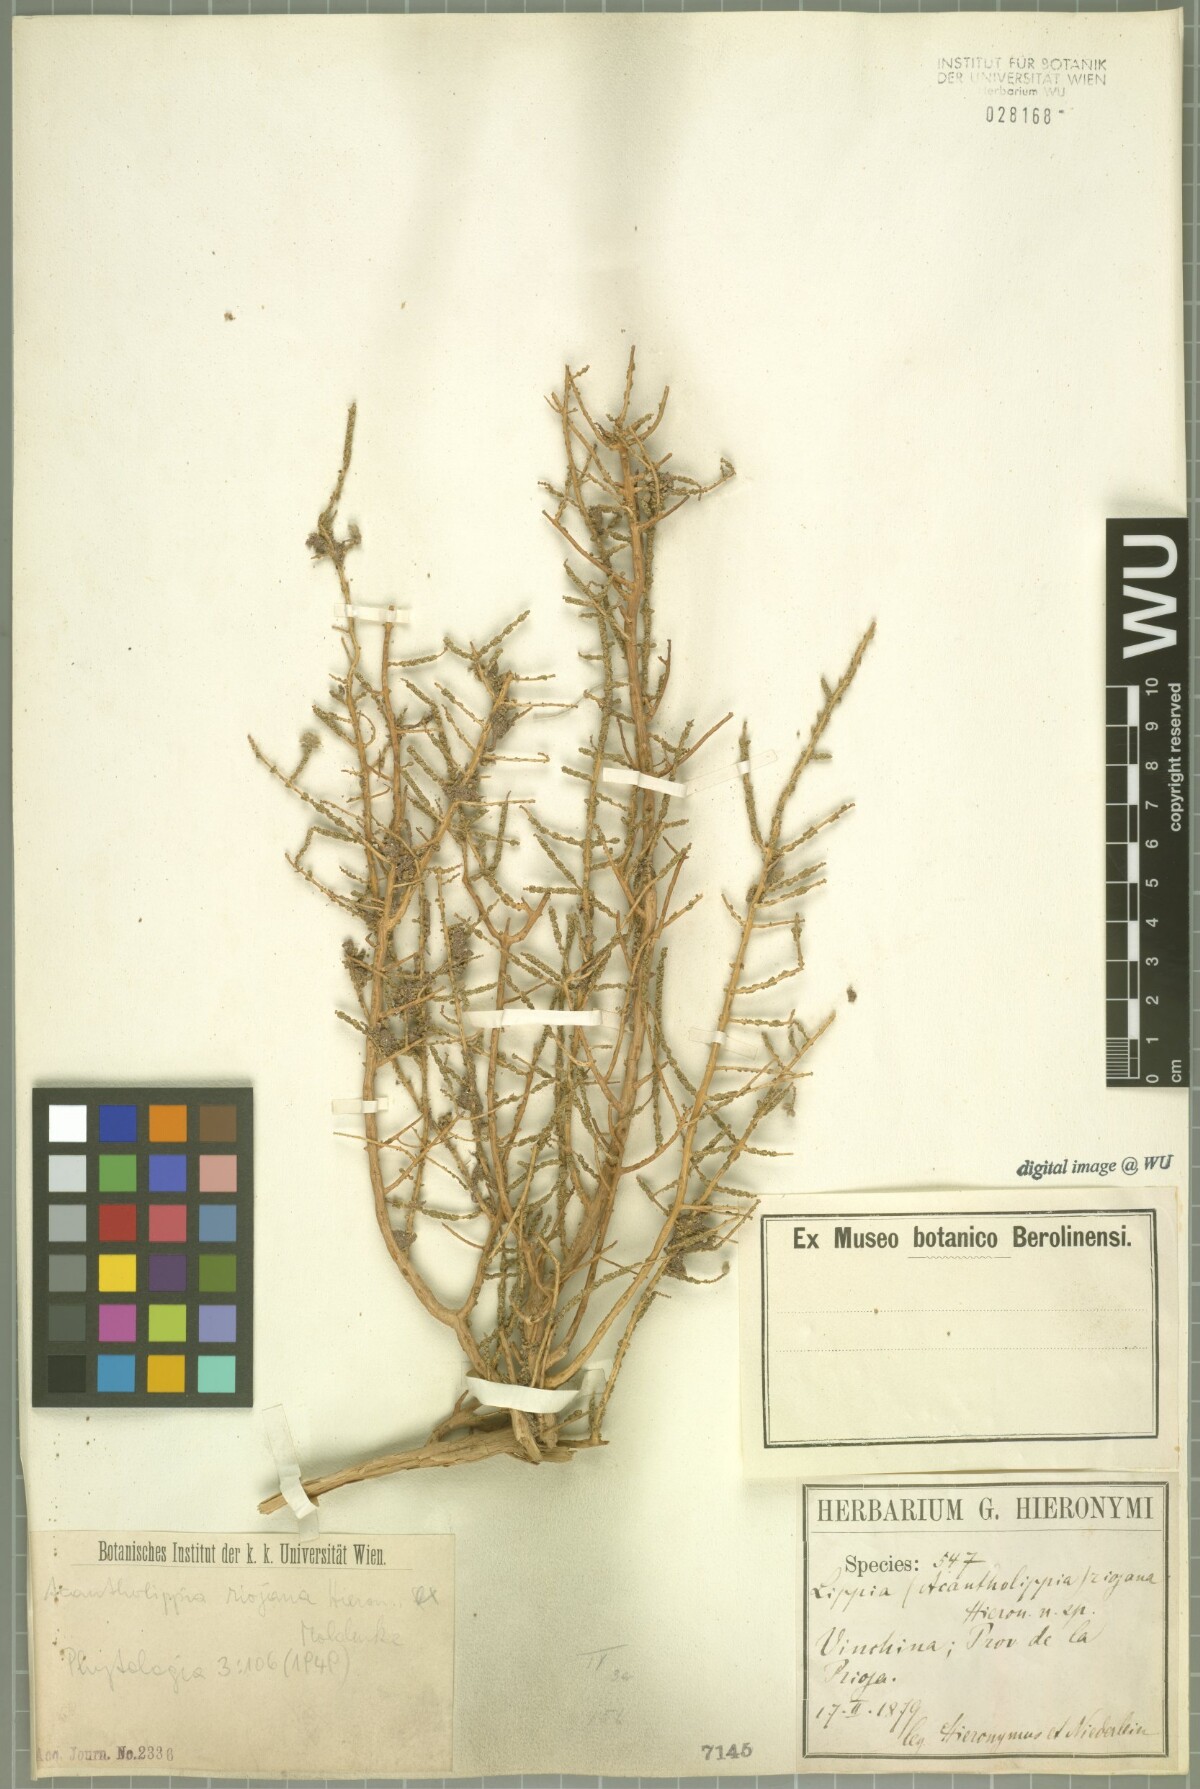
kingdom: Plantae
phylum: Tracheophyta
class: Magnoliopsida
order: Lamiales
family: Verbenaceae
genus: Aloysia
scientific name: Aloysia riojana
